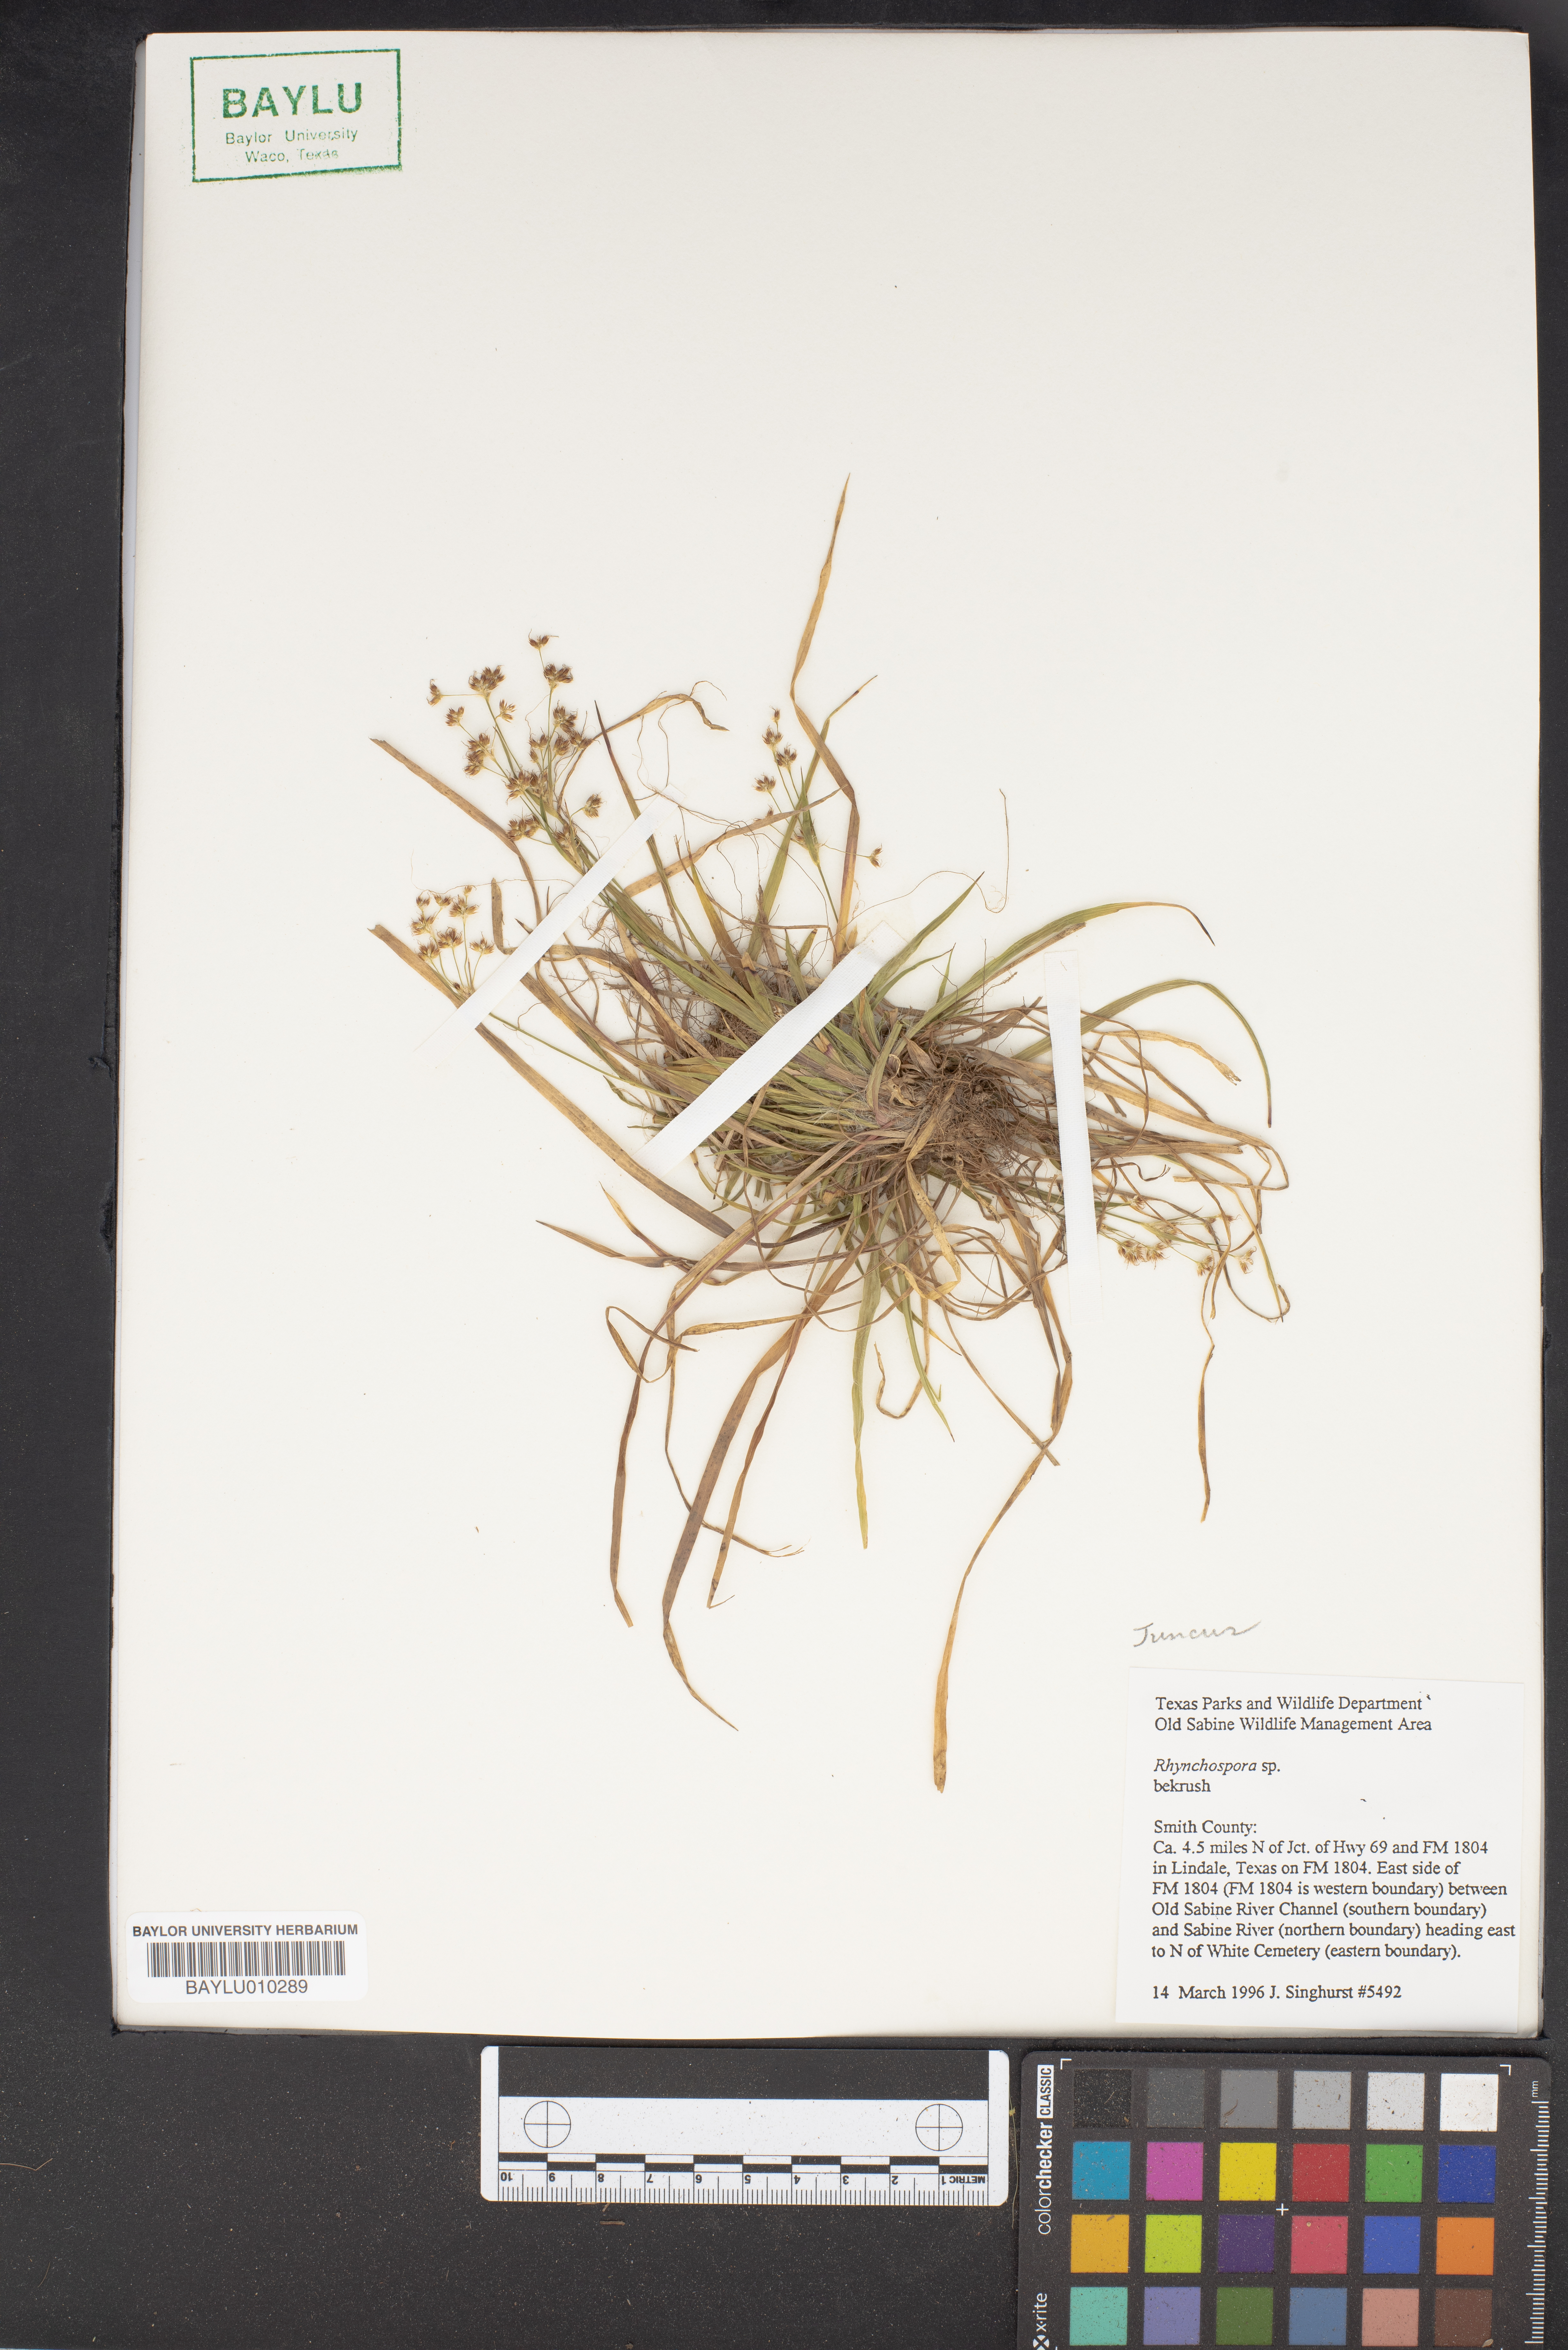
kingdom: Plantae
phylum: Tracheophyta
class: Liliopsida
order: Poales
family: Cyperaceae
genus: Rhynchospora
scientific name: Rhynchospora
